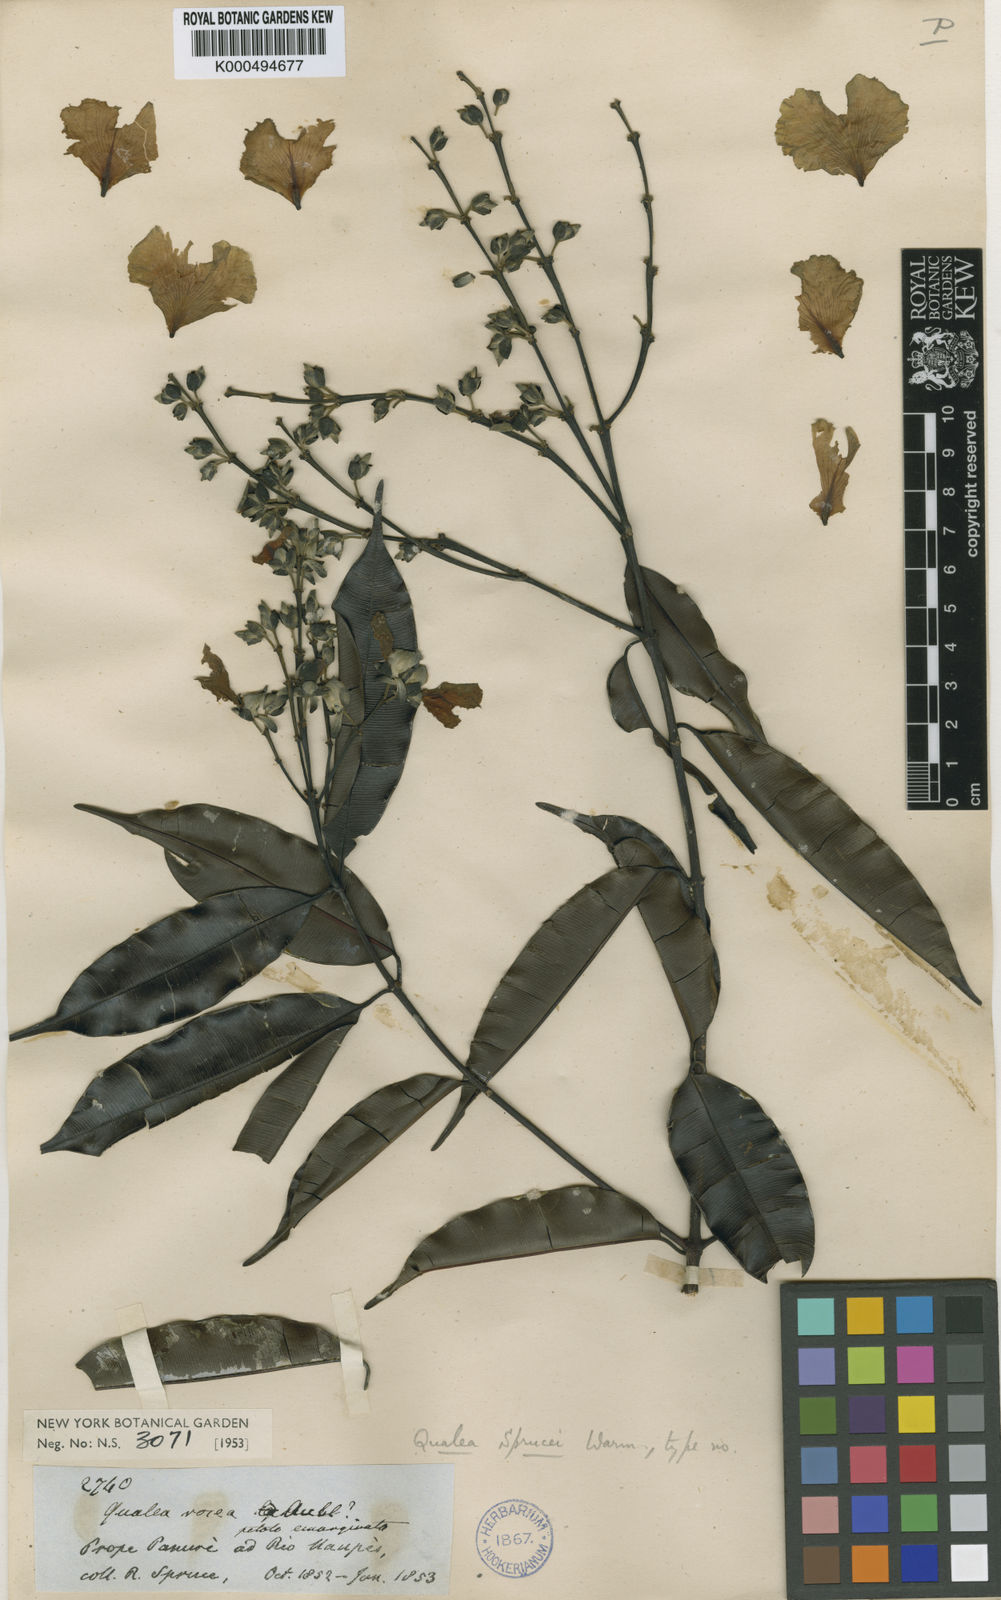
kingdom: Plantae
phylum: Tracheophyta
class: Magnoliopsida
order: Myrtales
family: Vochysiaceae
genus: Qualea
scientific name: Qualea sprucei
